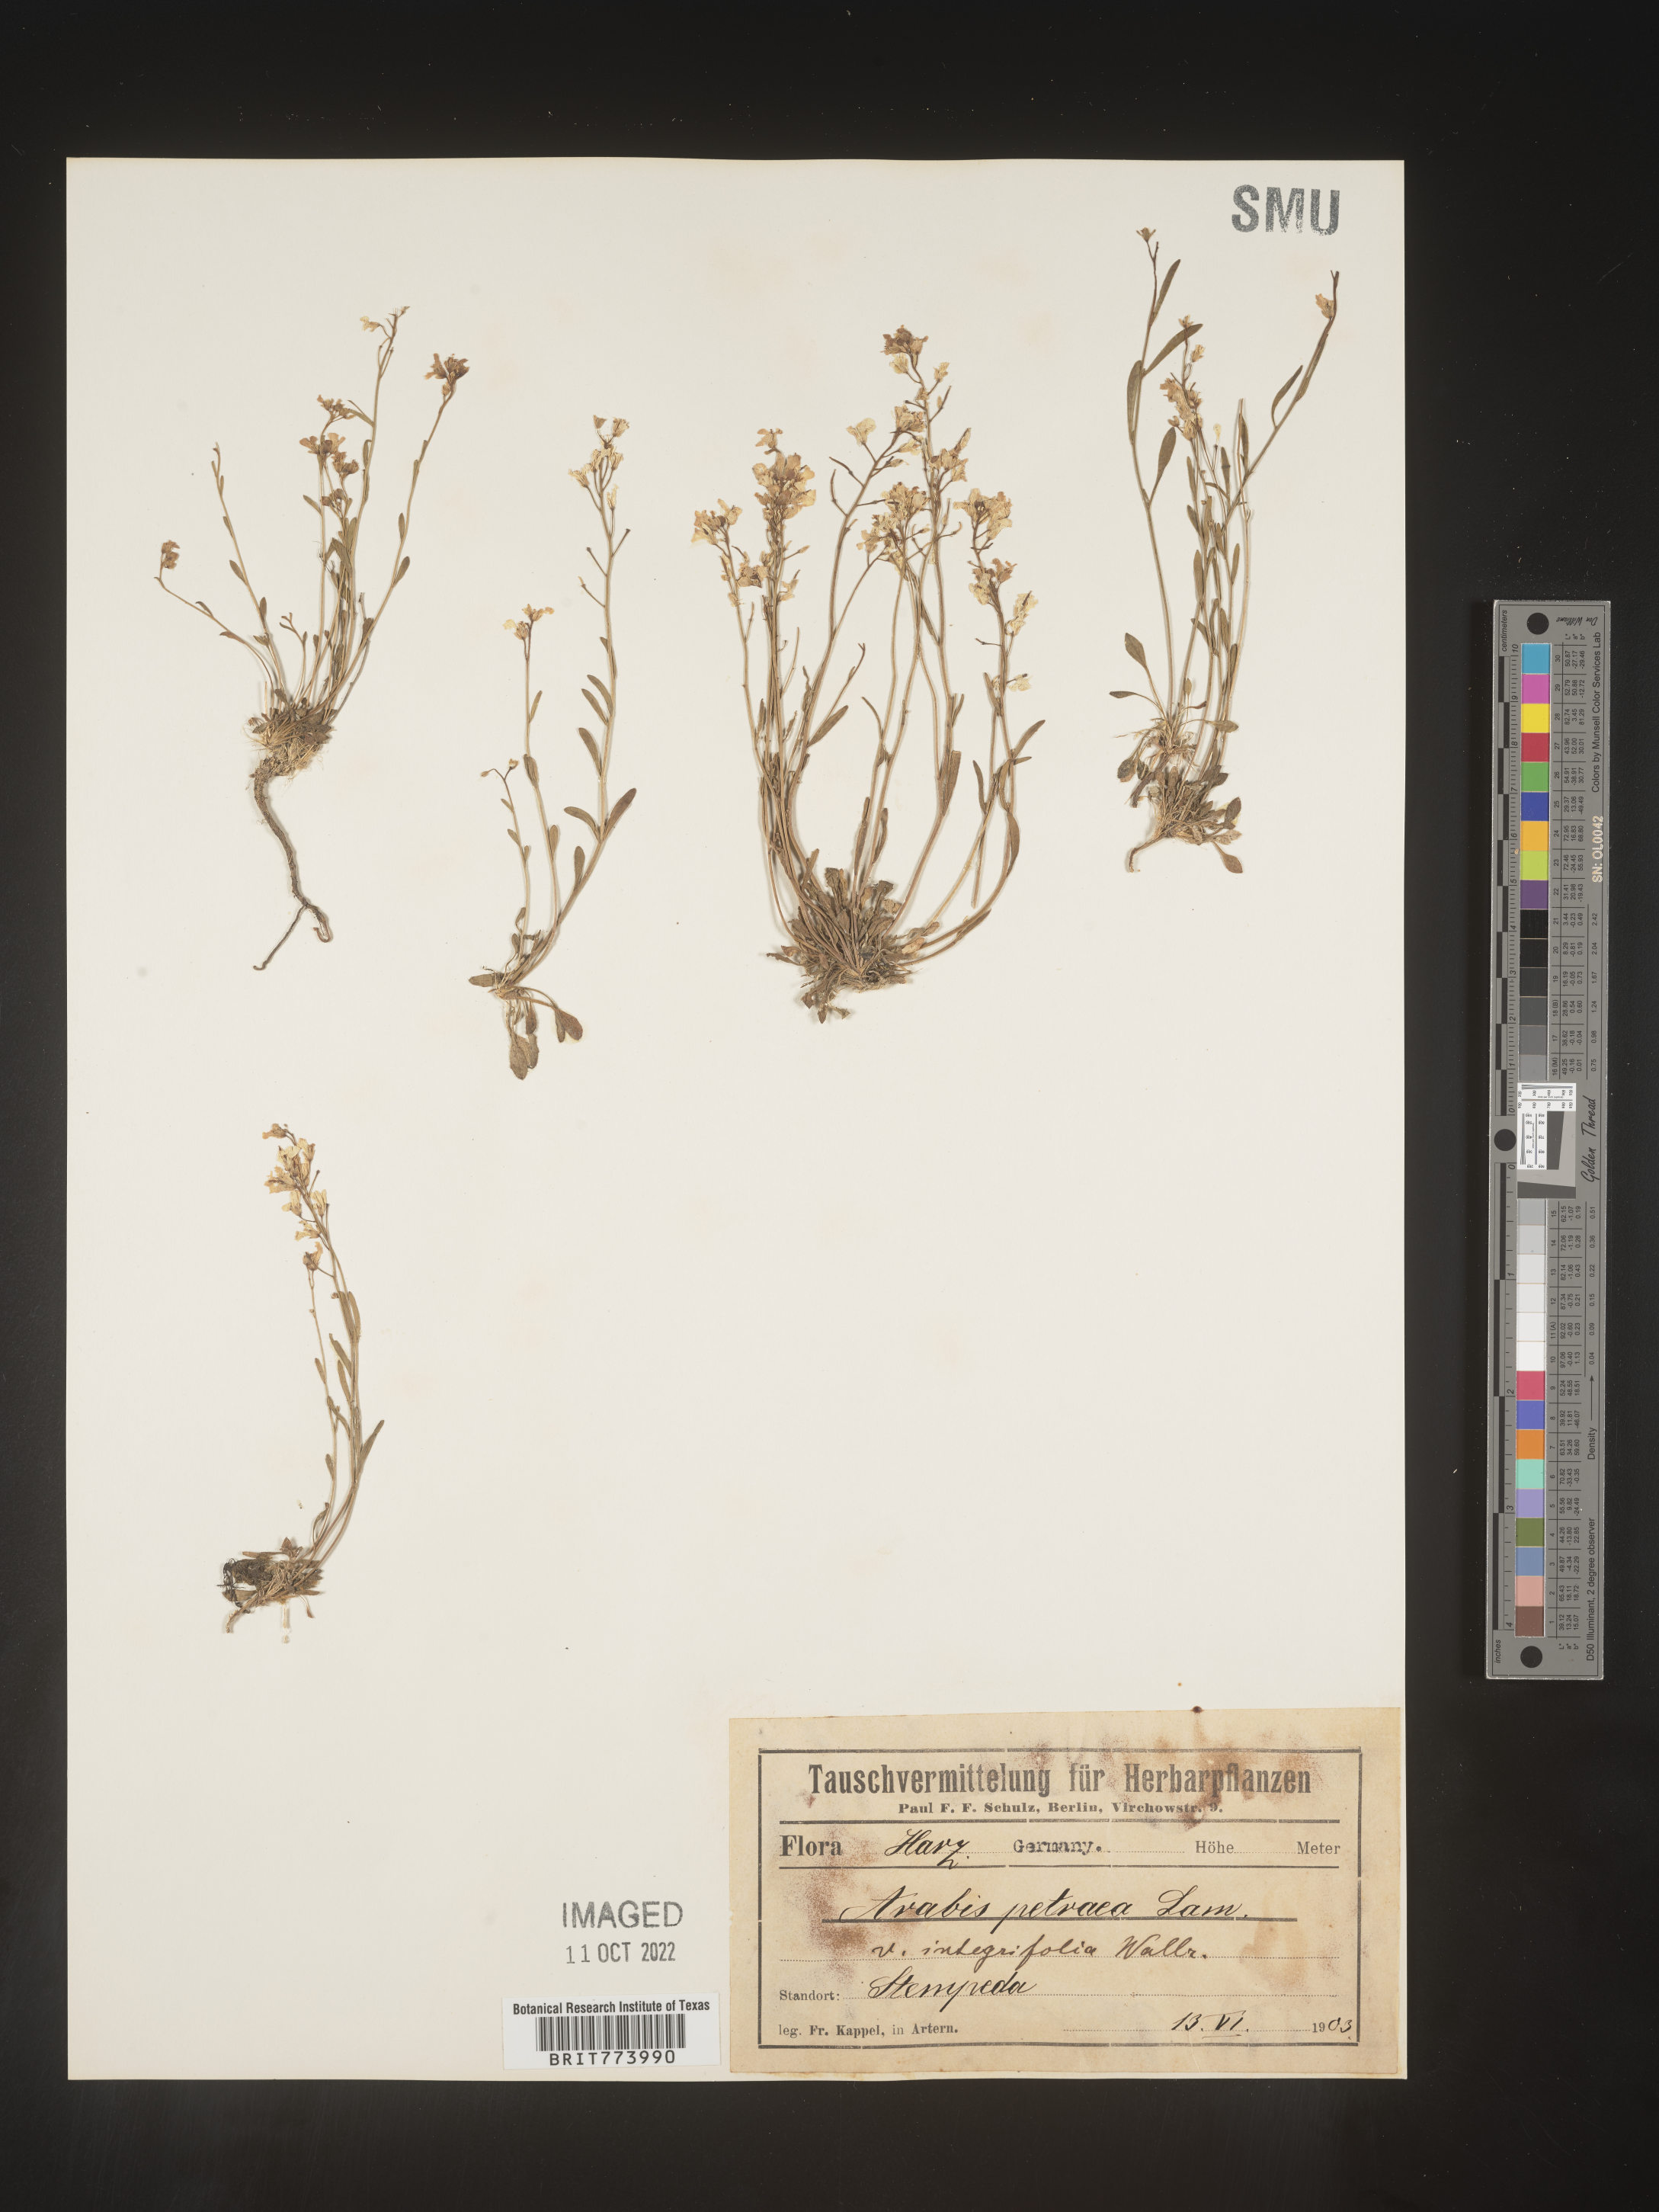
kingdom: Plantae
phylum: Tracheophyta
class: Magnoliopsida
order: Brassicales
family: Brassicaceae
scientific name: Brassicaceae
